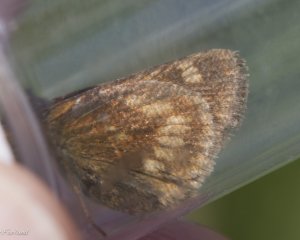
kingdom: Animalia
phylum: Arthropoda
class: Insecta
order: Lepidoptera
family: Hesperiidae
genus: Polites
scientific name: Polites
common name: Long Dash Skipper
